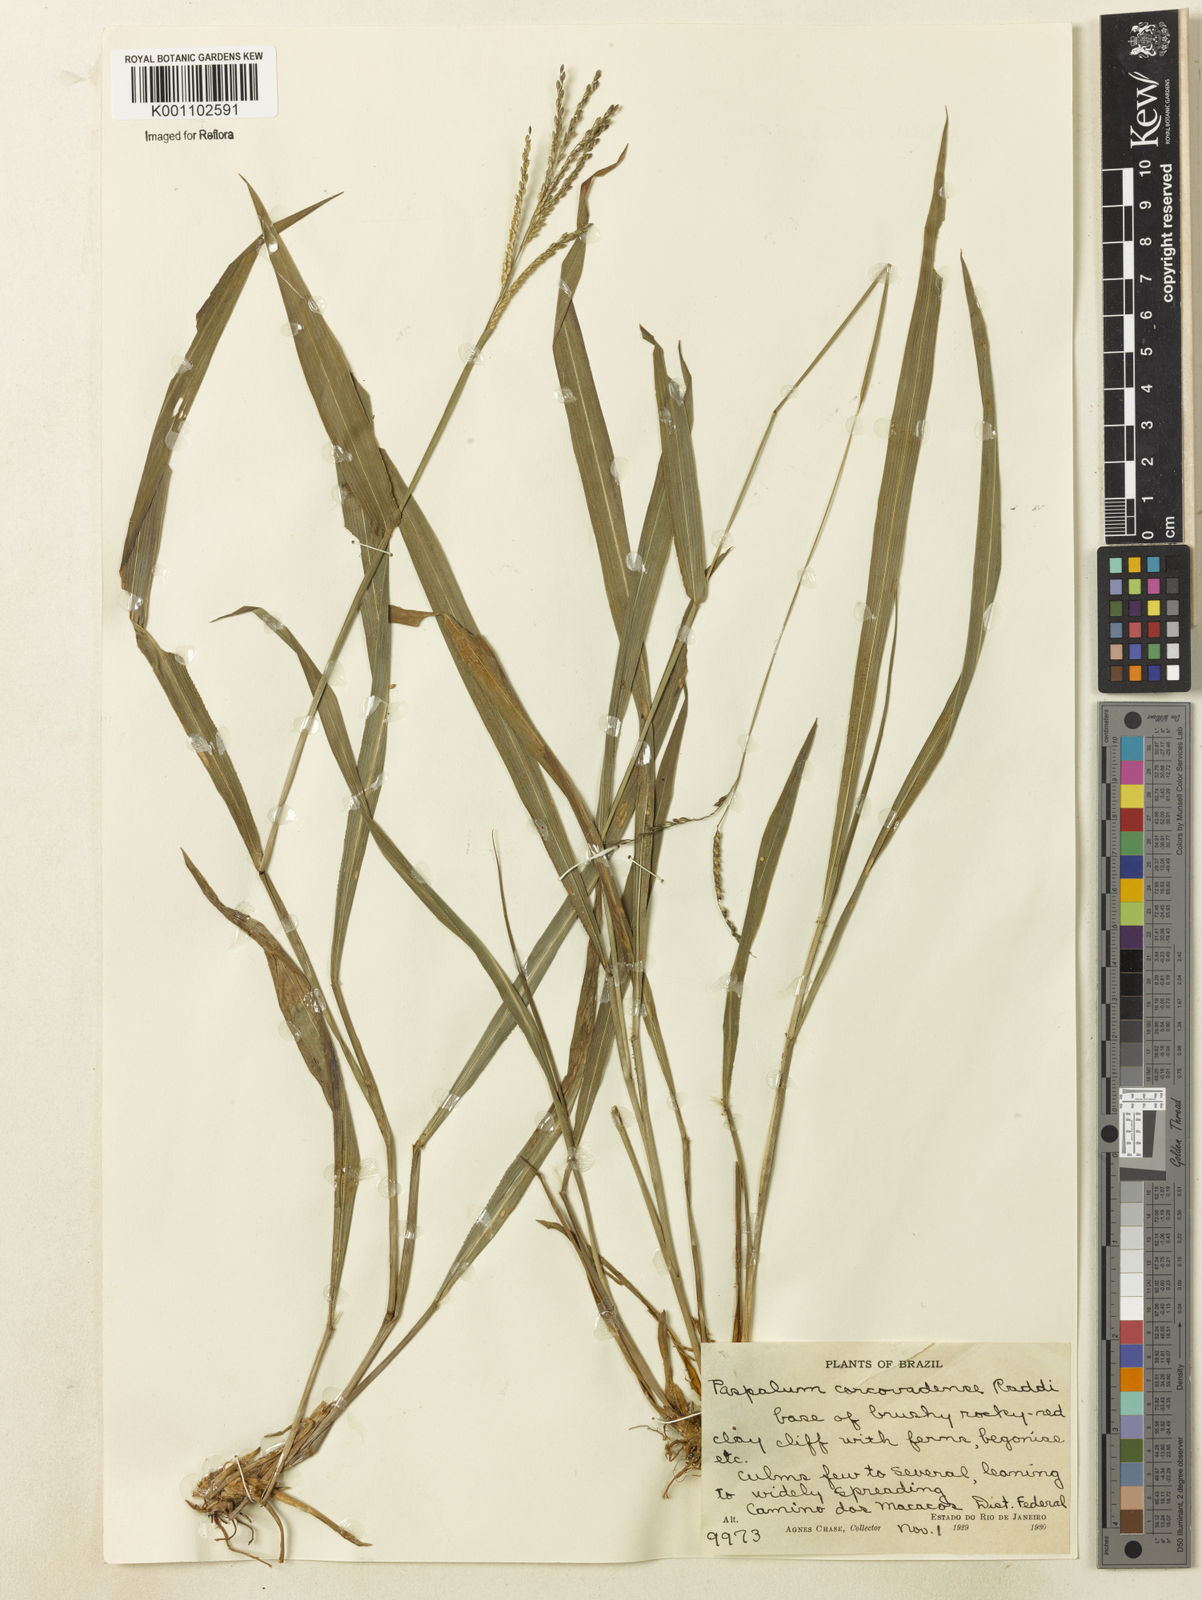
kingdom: Plantae
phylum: Tracheophyta
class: Liliopsida
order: Poales
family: Poaceae
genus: Paspalum
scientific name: Paspalum corcovadense
